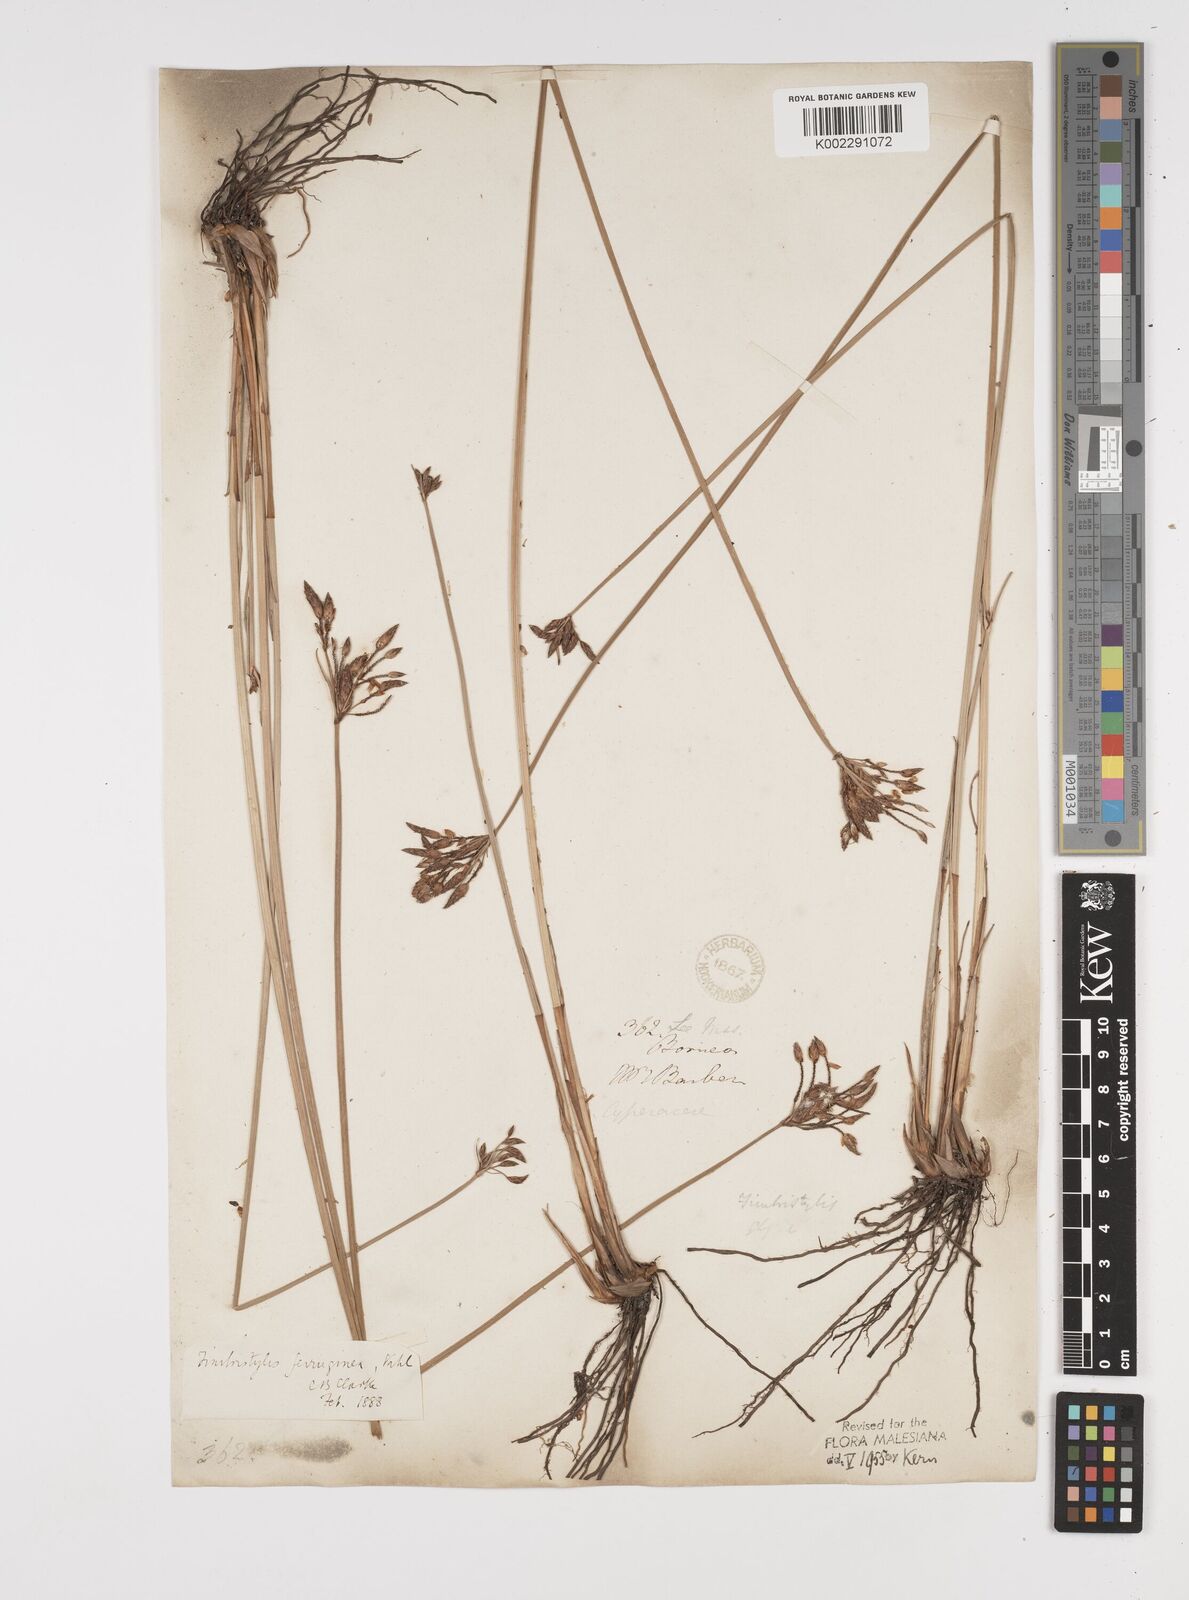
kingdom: Plantae
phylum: Tracheophyta
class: Liliopsida
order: Poales
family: Cyperaceae
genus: Fimbristylis
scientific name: Fimbristylis ferruginea
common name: West indian fimbry
